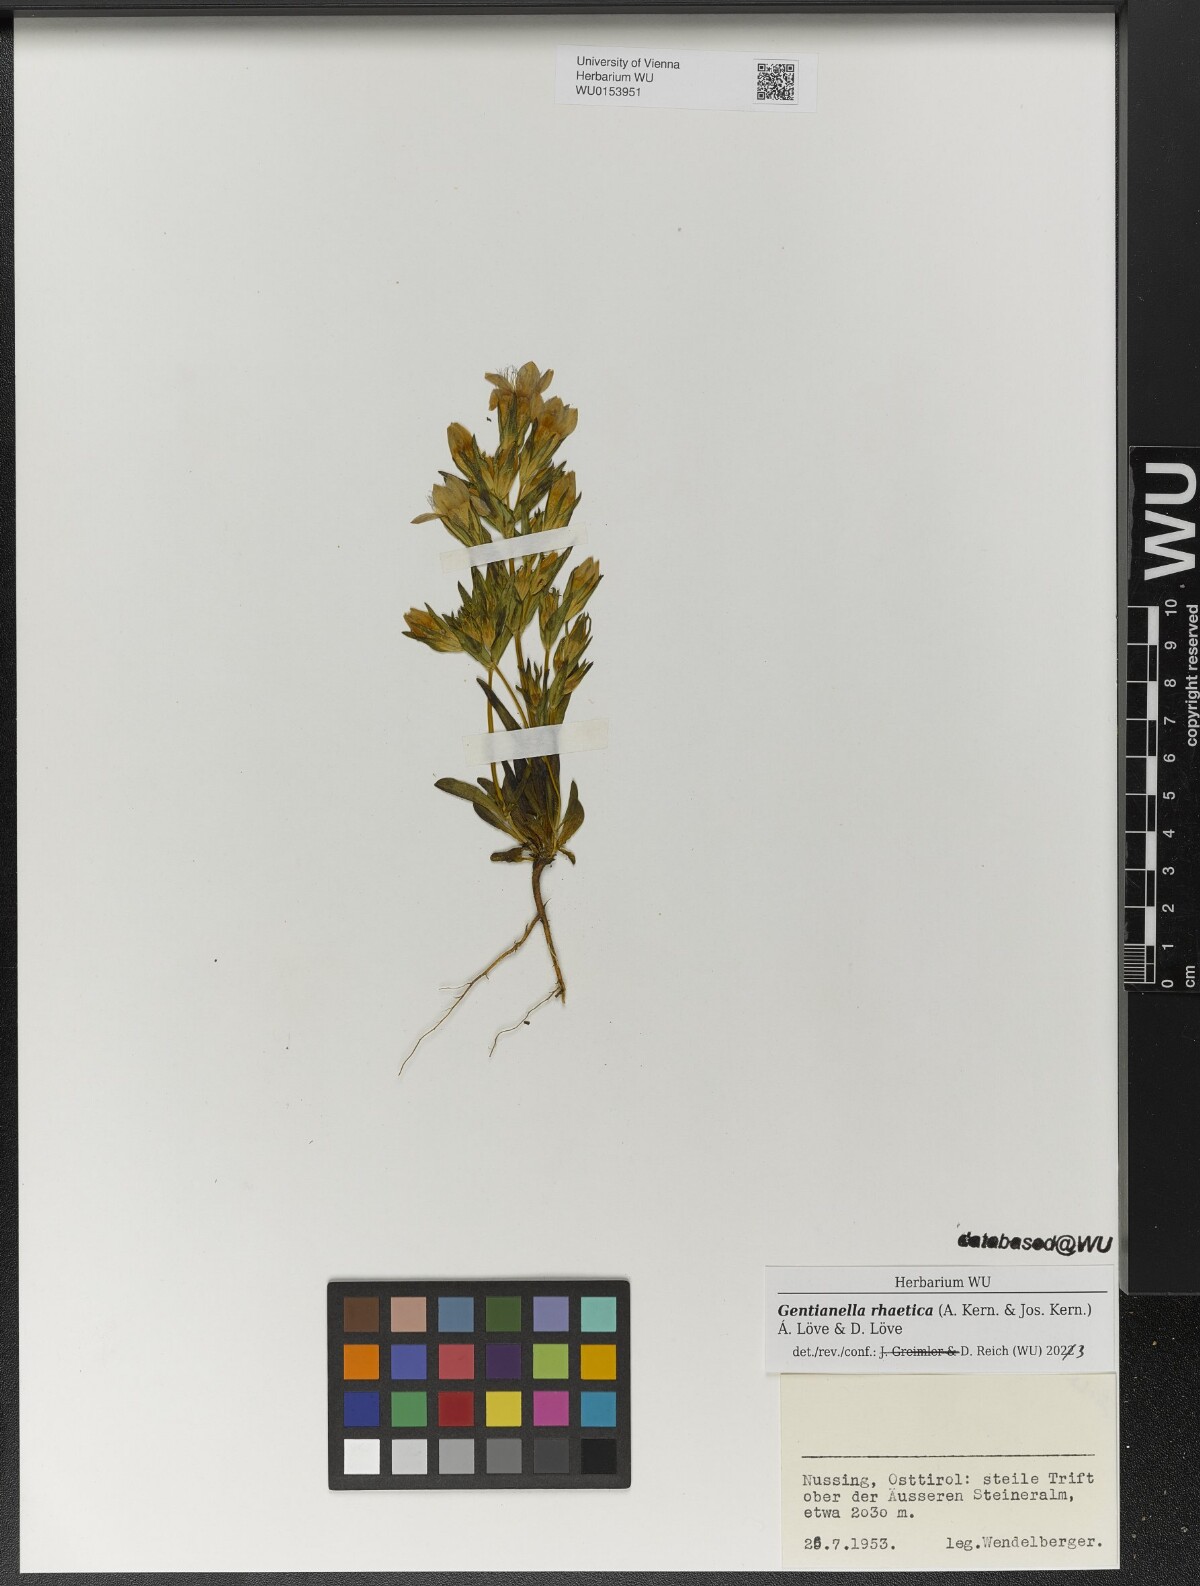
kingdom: Plantae
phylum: Tracheophyta
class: Magnoliopsida
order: Gentianales
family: Gentianaceae
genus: Gentianella
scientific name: Gentianella rhaetica
